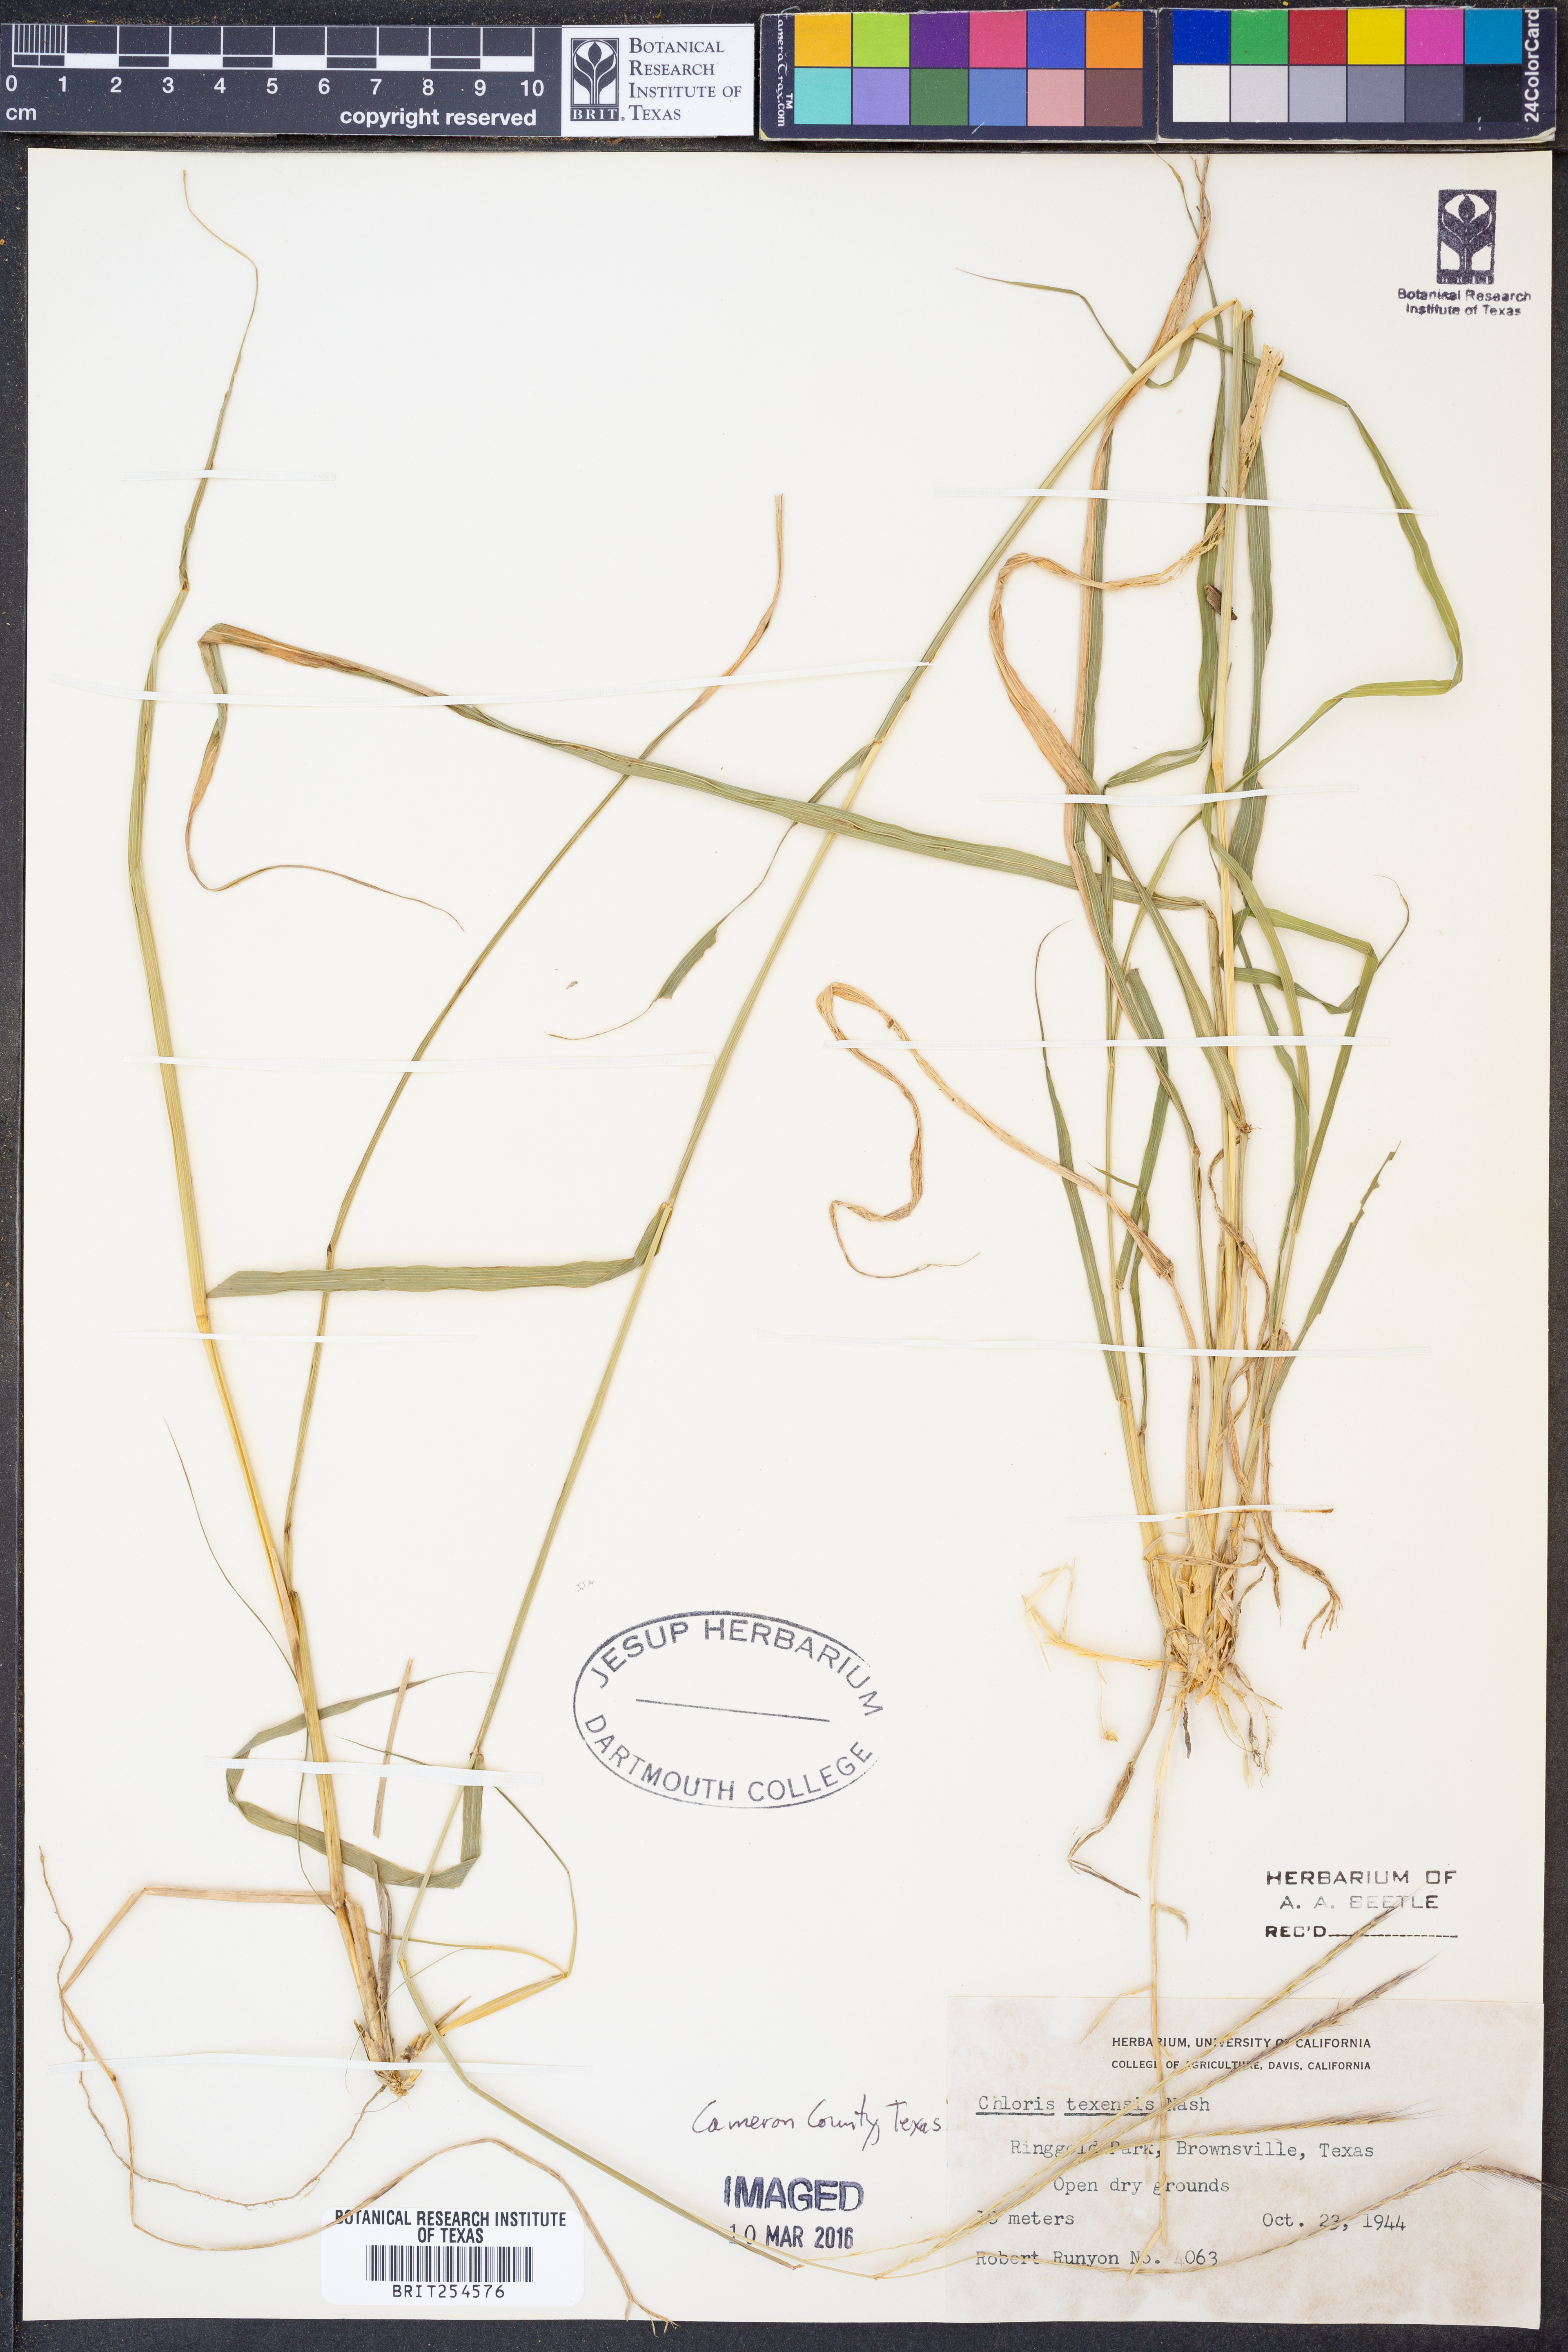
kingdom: Plantae
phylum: Tracheophyta
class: Liliopsida
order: Poales
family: Poaceae
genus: Chloris
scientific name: Chloris texensis
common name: Texas windmill grass
